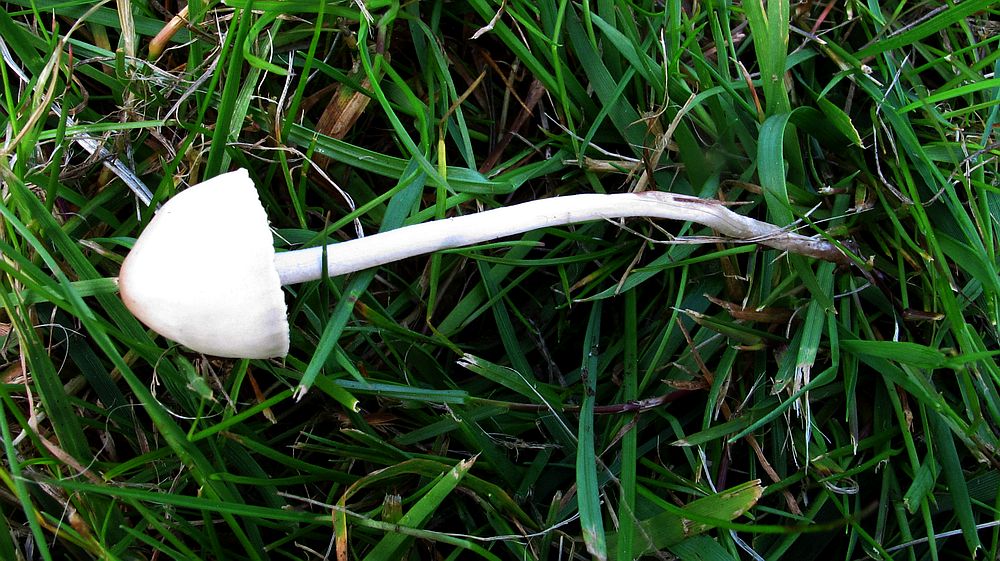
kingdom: Fungi
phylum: Basidiomycota
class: Agaricomycetes
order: Agaricales
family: Bolbitiaceae
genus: Panaeolina
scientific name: Panaeolina foenisecii
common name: høslætsvamp
